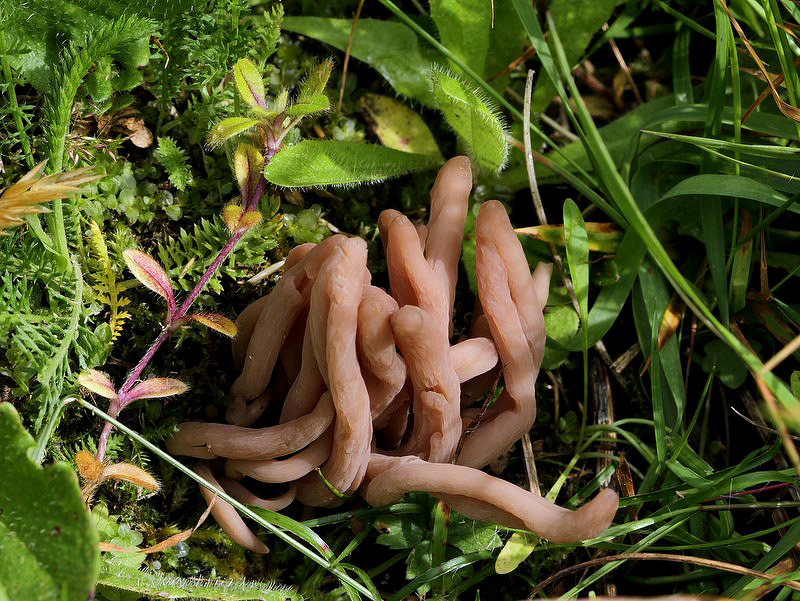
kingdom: Fungi
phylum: Basidiomycota
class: Agaricomycetes
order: Agaricales
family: Clavariaceae
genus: Clavaria
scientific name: Clavaria fumosa
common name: røggrå køllesvamp
